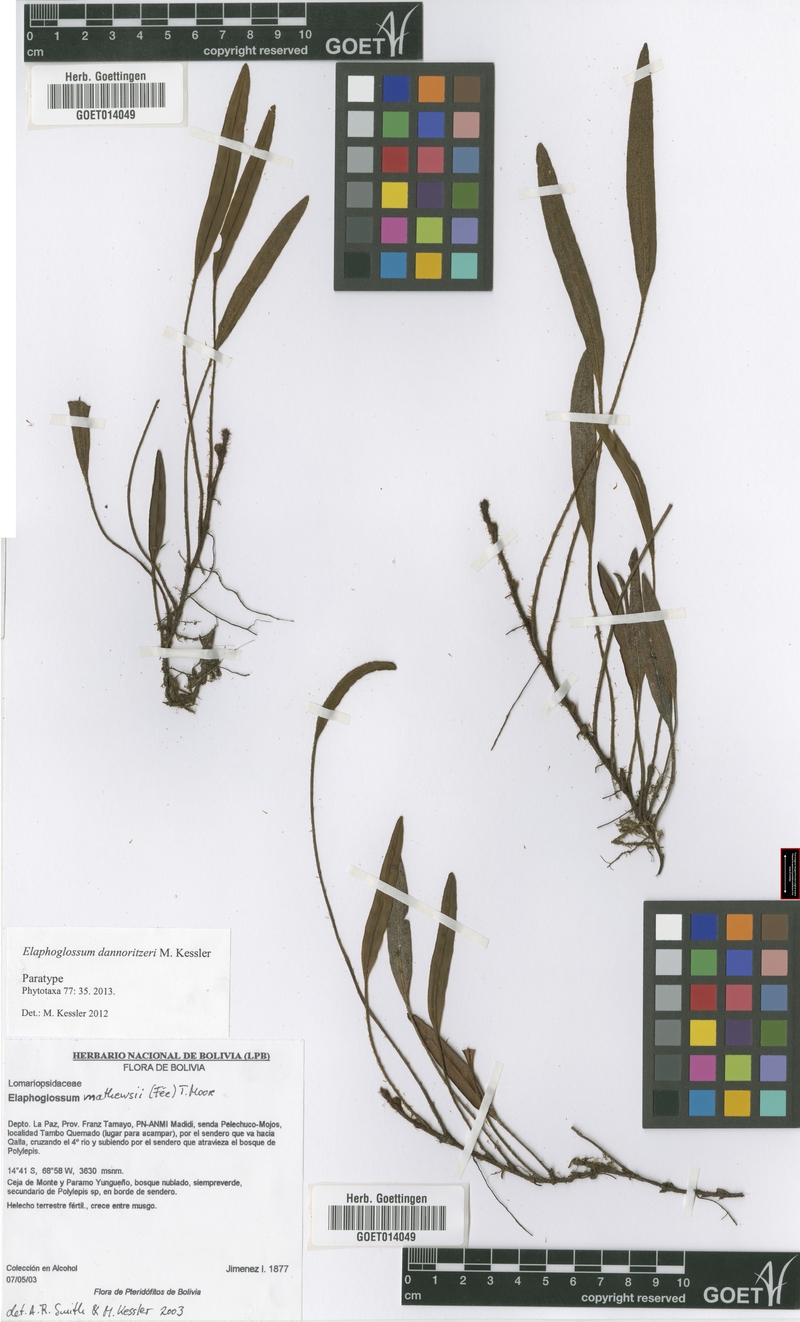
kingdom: Plantae
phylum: Tracheophyta
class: Polypodiopsida
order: Polypodiales
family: Dryopteridaceae
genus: Elaphoglossum
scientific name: Elaphoglossum dannoritzeri
